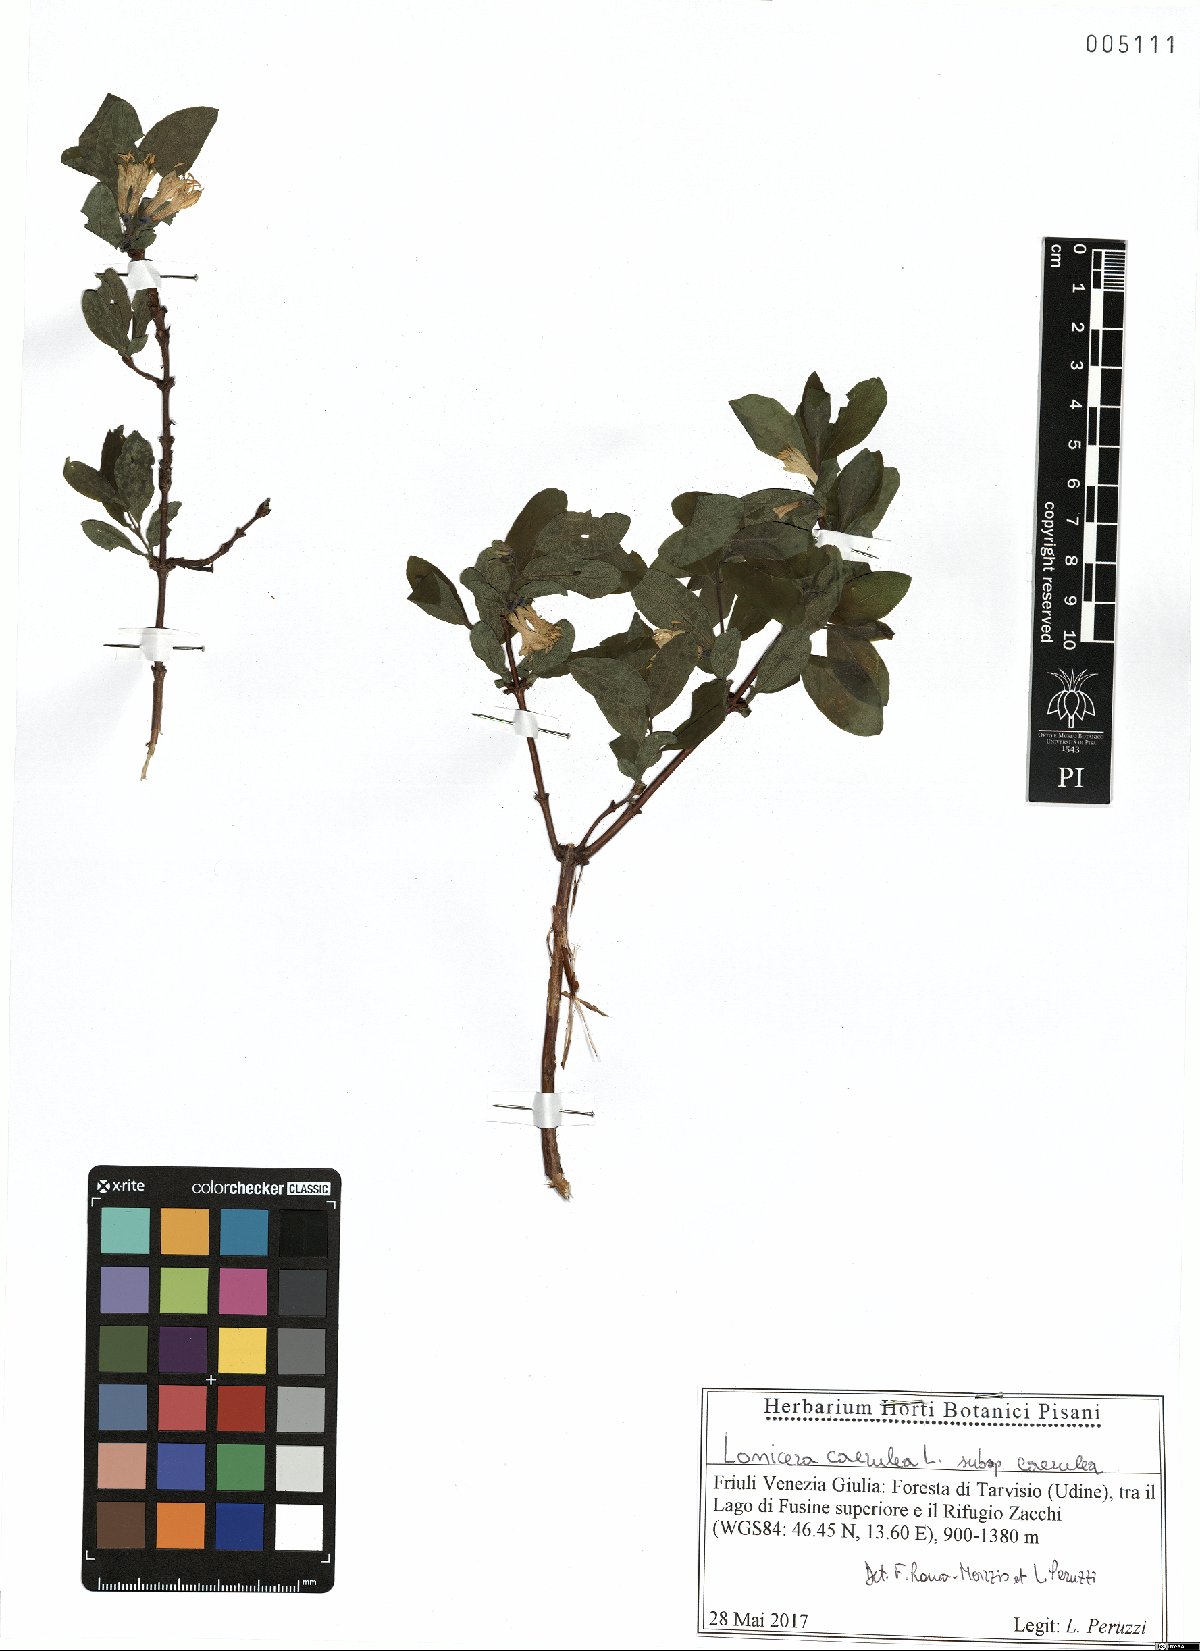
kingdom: Plantae
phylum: Tracheophyta
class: Magnoliopsida
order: Dipsacales
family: Caprifoliaceae
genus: Lonicera
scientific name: Lonicera caerulea
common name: Blue honeysuckle
